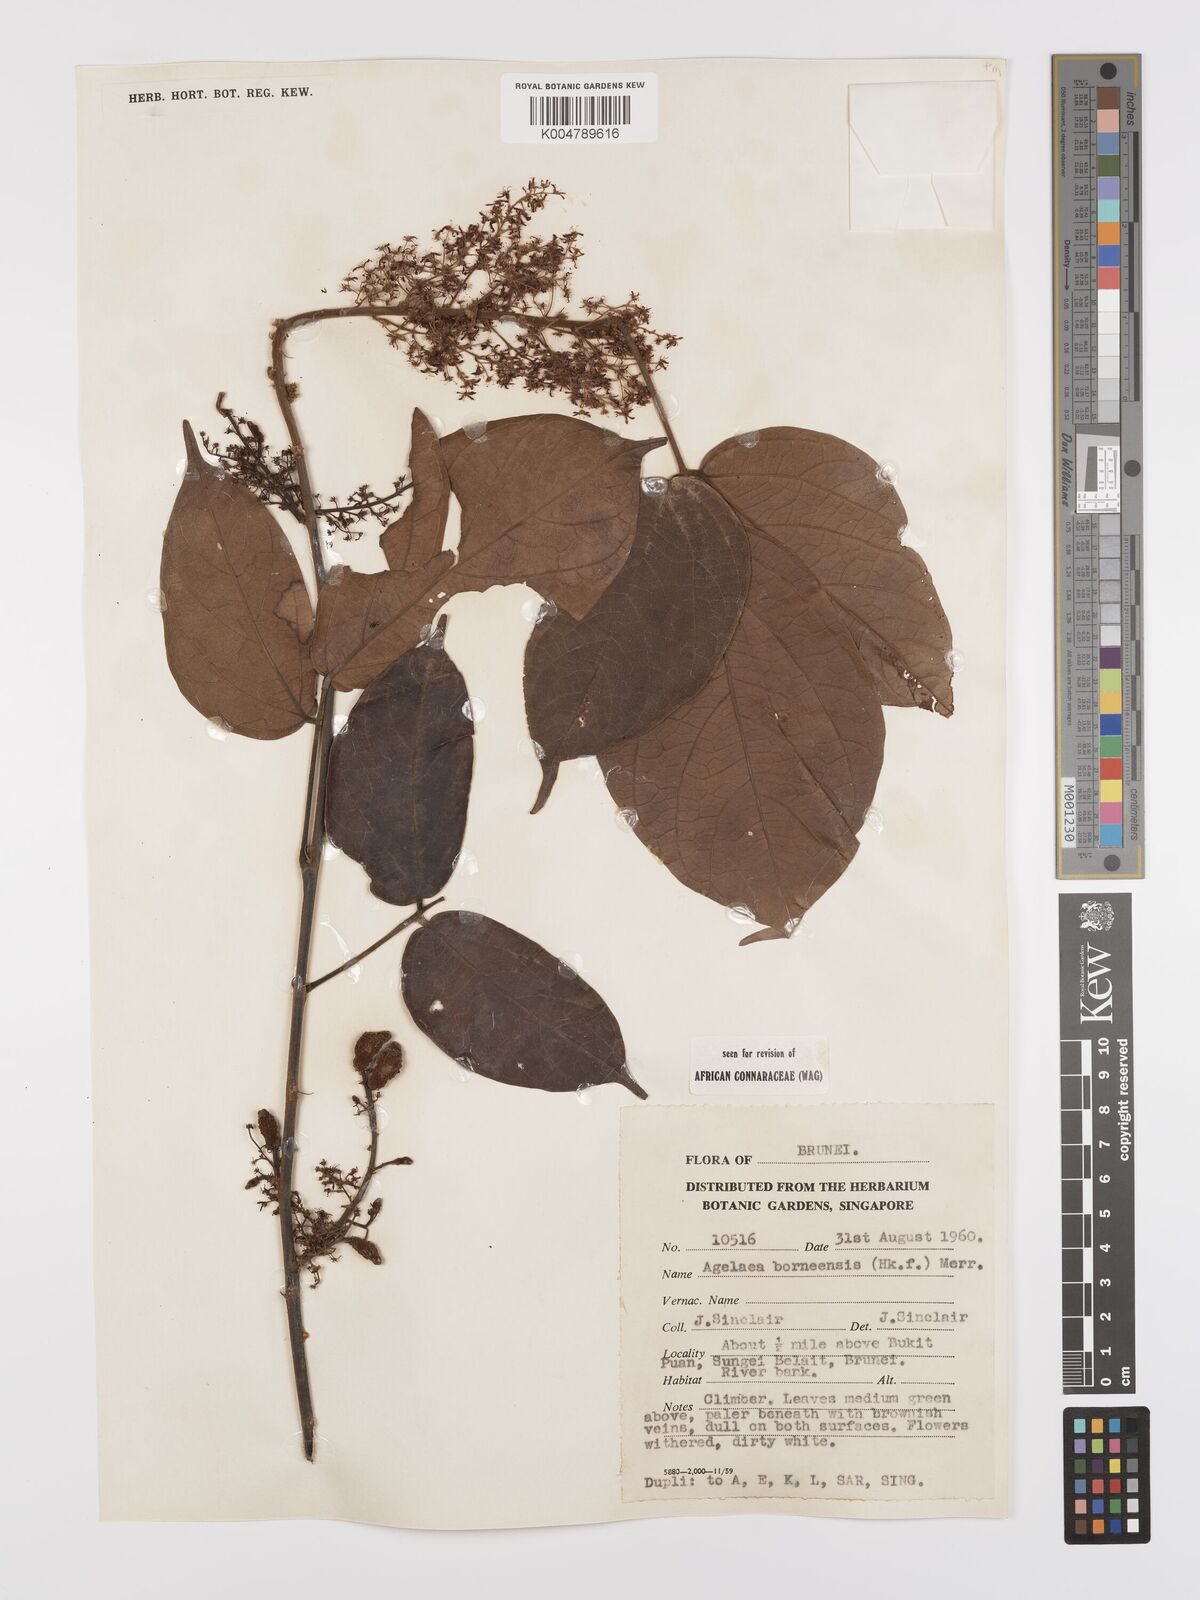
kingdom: Plantae
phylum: Tracheophyta
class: Magnoliopsida
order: Oxalidales
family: Connaraceae
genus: Agelaea
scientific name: Agelaea borneensis
